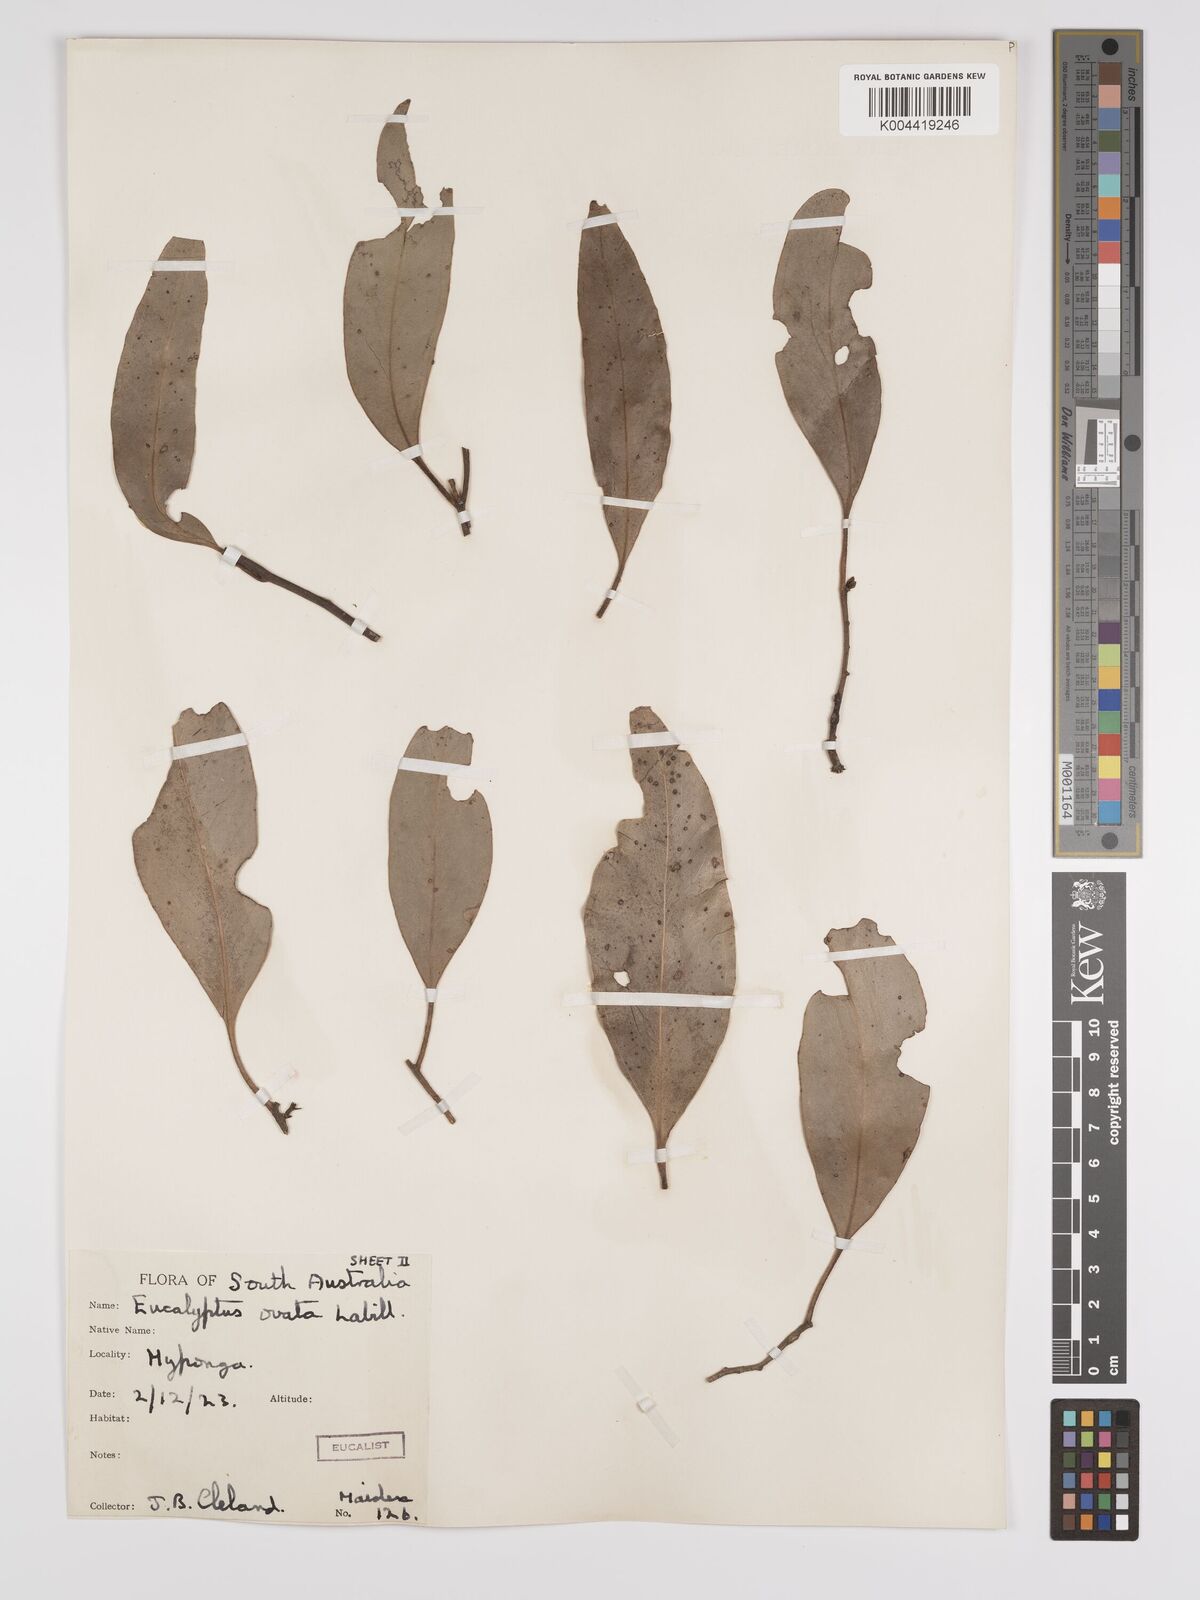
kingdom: Plantae
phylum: Tracheophyta
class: Magnoliopsida
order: Myrtales
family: Myrtaceae
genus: Eucalyptus
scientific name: Eucalyptus ovata
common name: Black-gum
